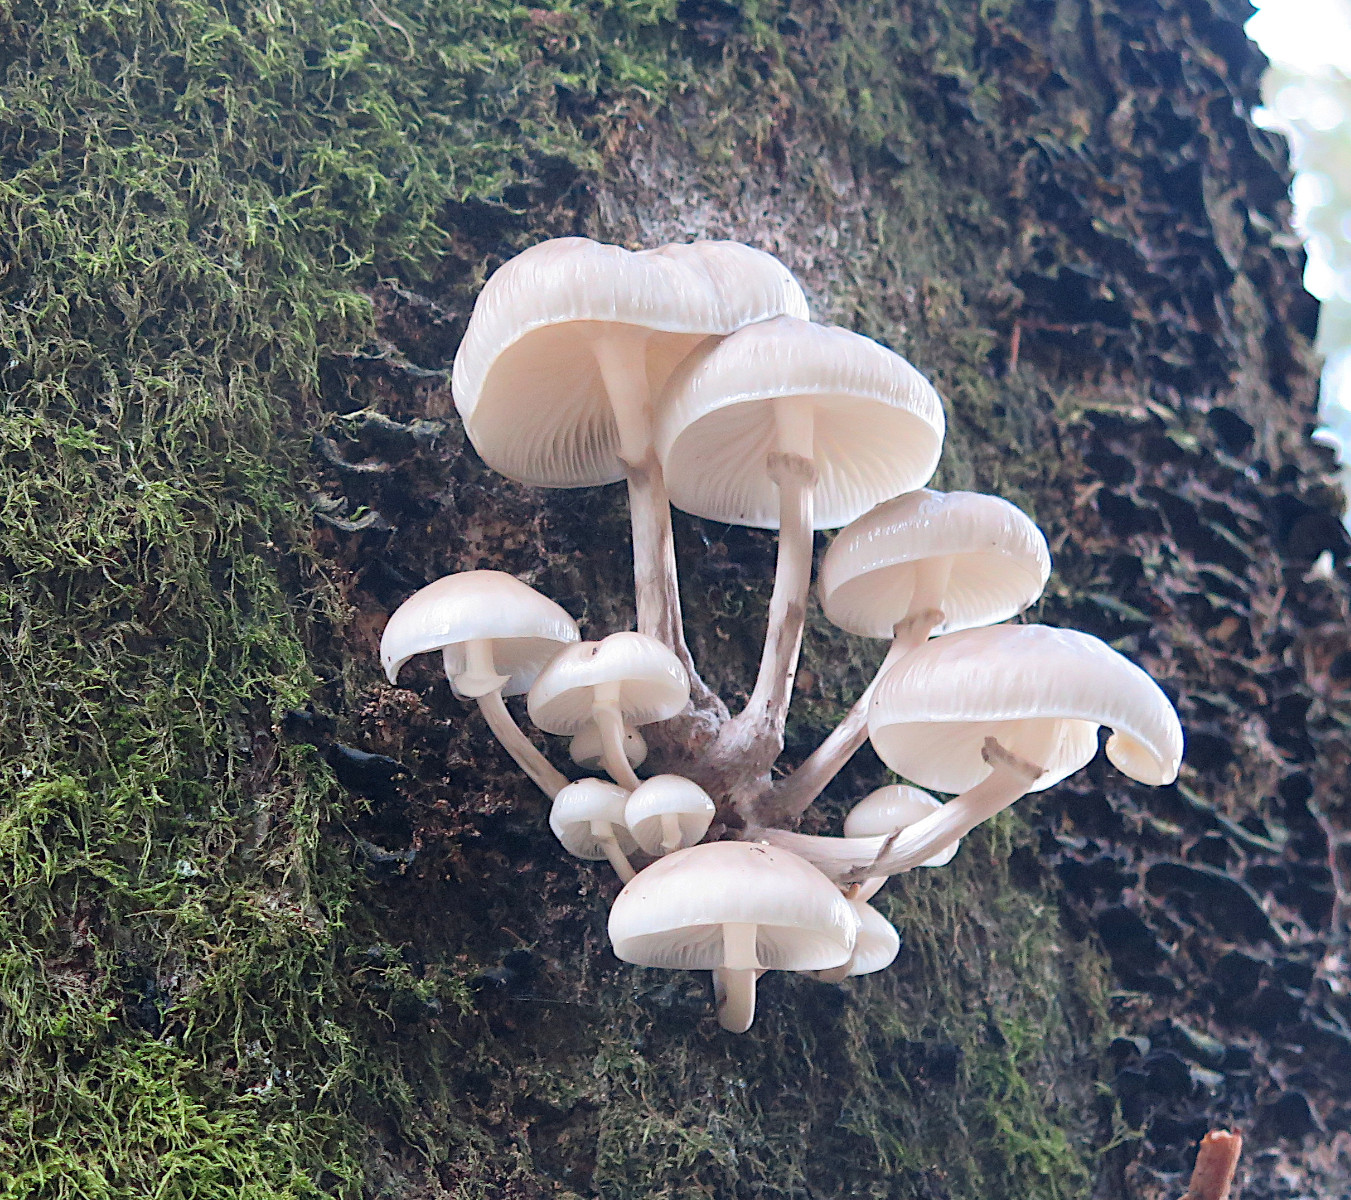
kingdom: Fungi
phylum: Basidiomycota
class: Agaricomycetes
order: Agaricales
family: Physalacriaceae
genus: Mucidula
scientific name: Mucidula mucida
